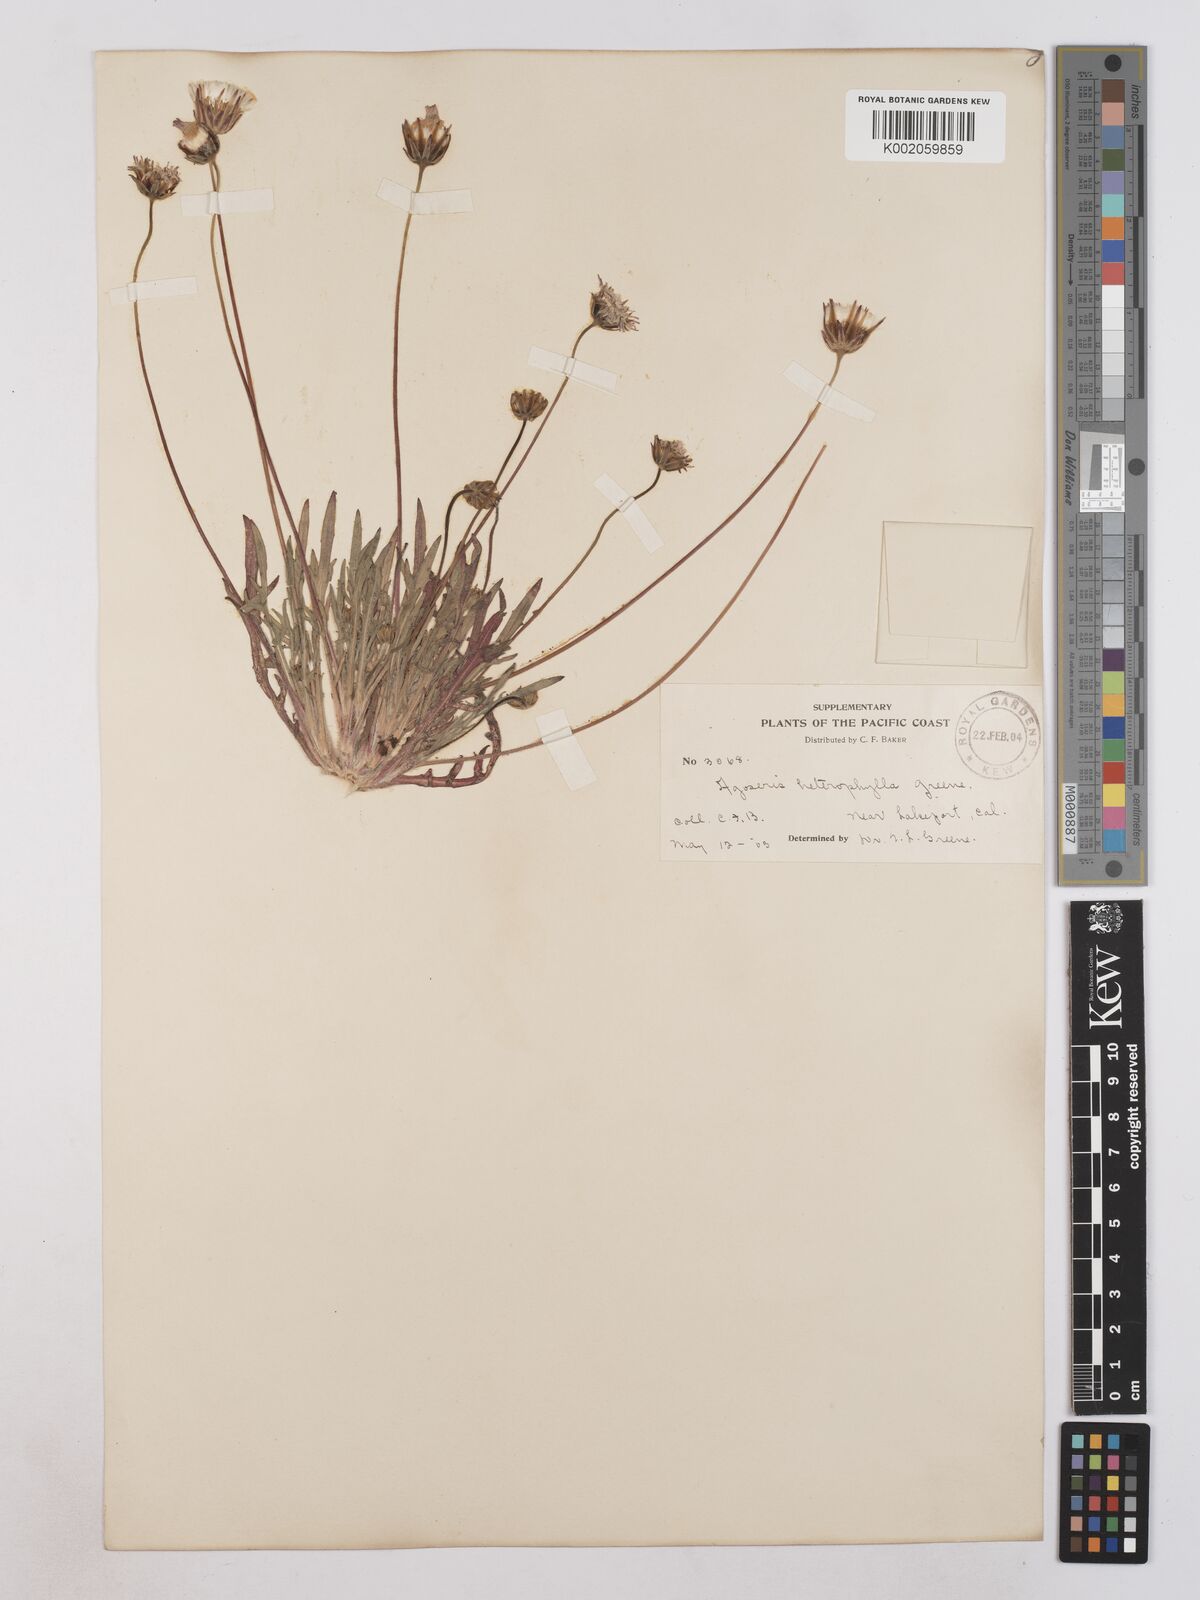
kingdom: Plantae
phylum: Tracheophyta
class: Magnoliopsida
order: Asterales
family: Asteraceae
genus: Agoseris
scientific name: Agoseris heterophylla
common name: Annual agoseris
